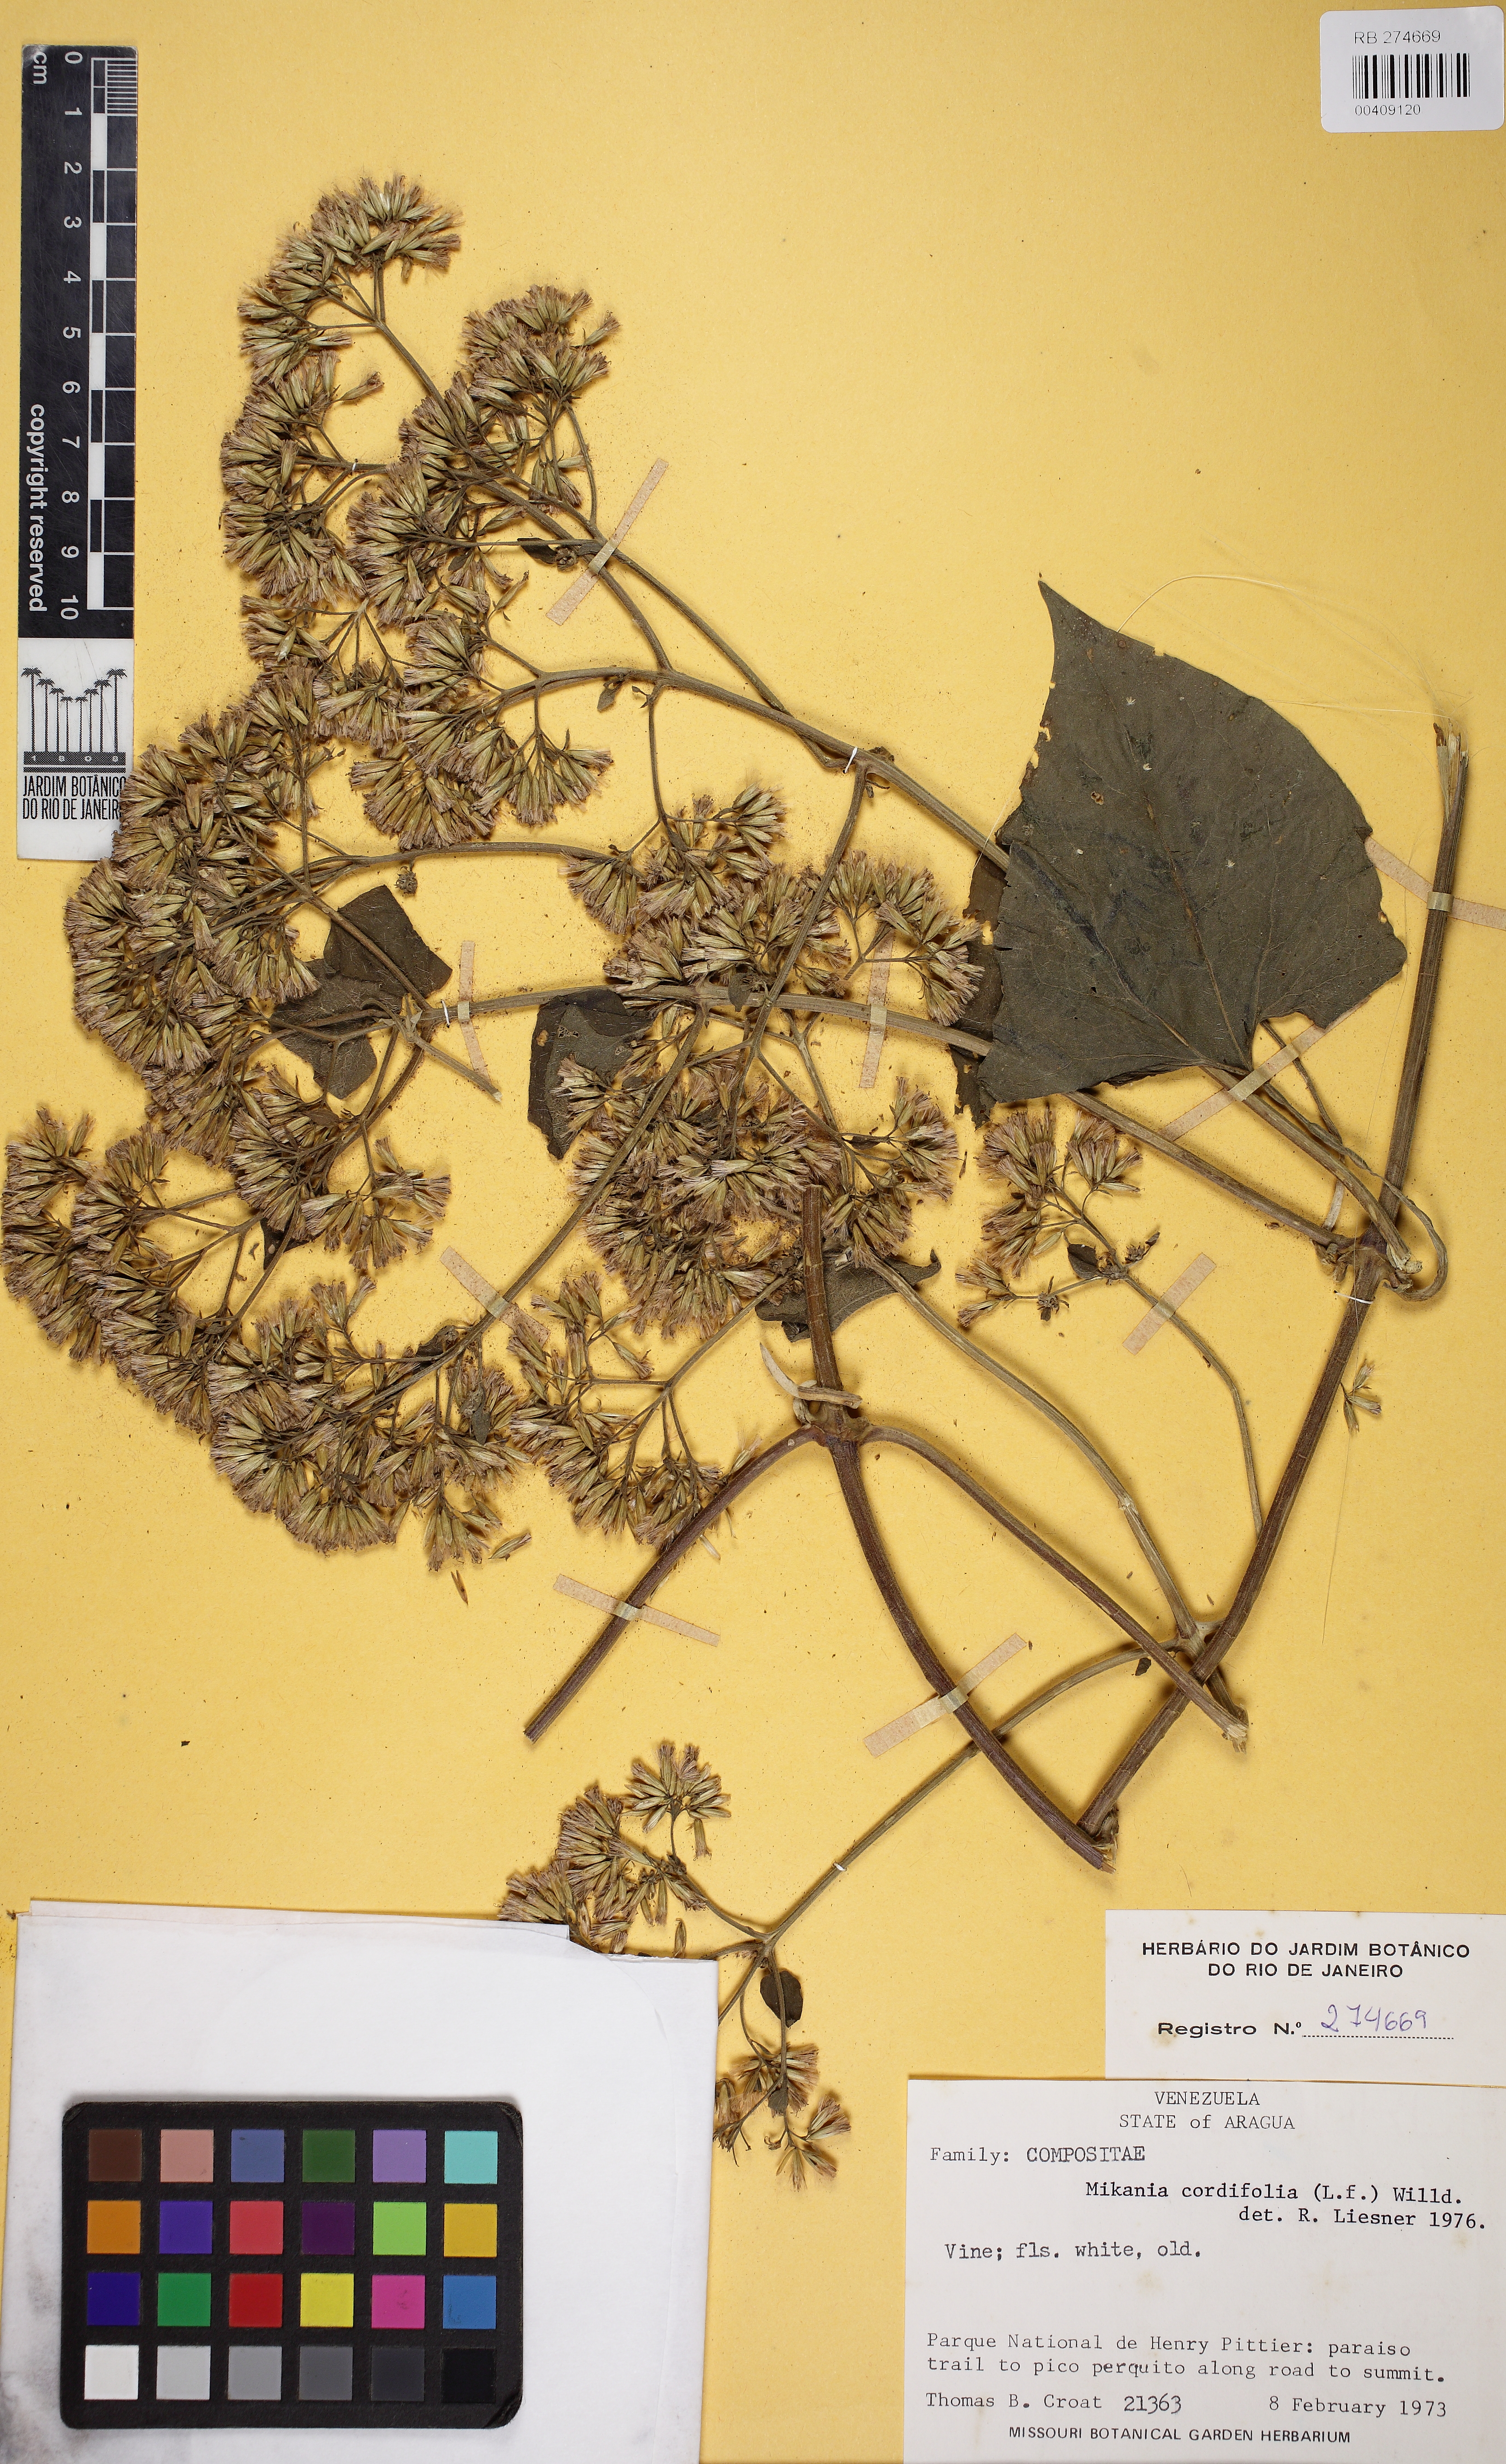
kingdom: Plantae
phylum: Tracheophyta
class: Magnoliopsida
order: Asterales
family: Asteraceae
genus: Mikania
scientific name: Mikania cordifolia
